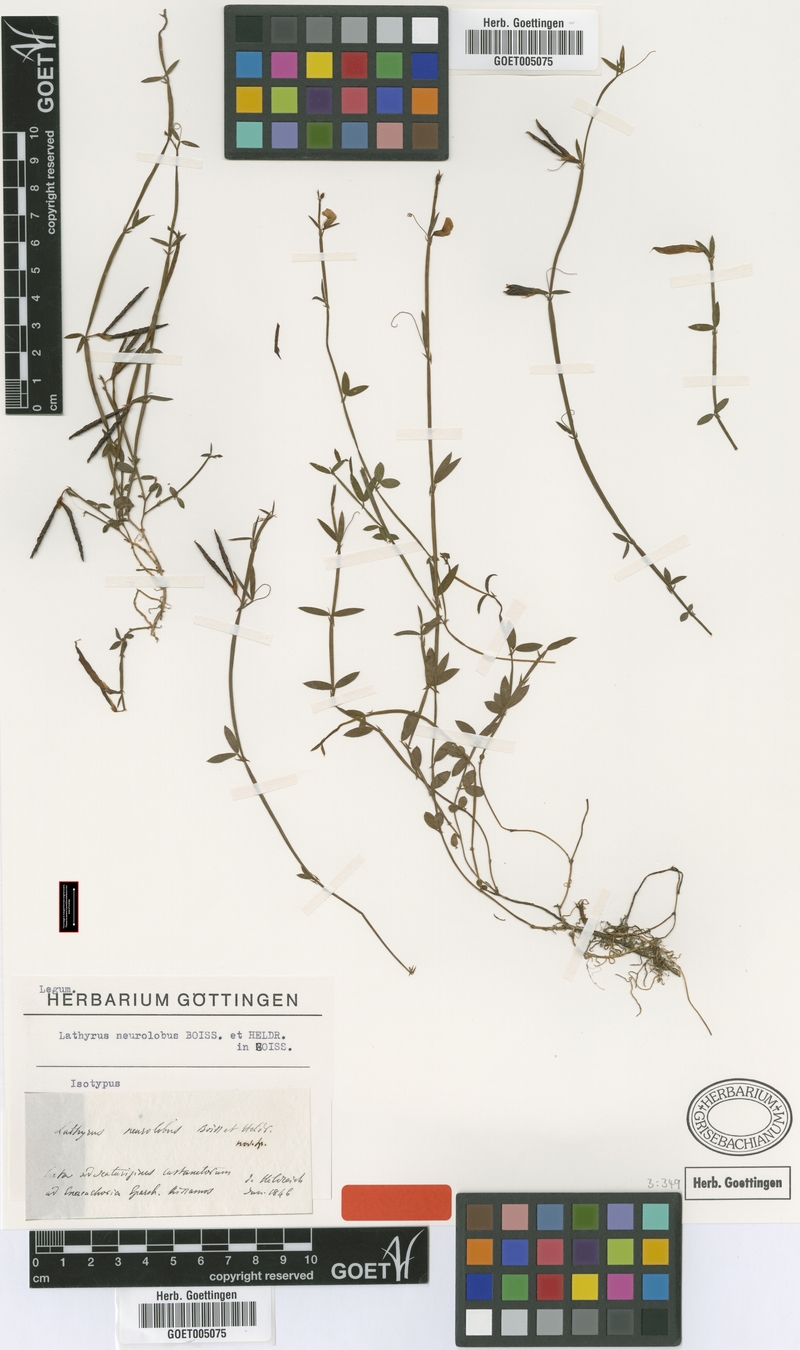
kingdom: Plantae
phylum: Tracheophyta
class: Magnoliopsida
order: Fabales
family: Fabaceae
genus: Lathyrus
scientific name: Lathyrus neurolobus
